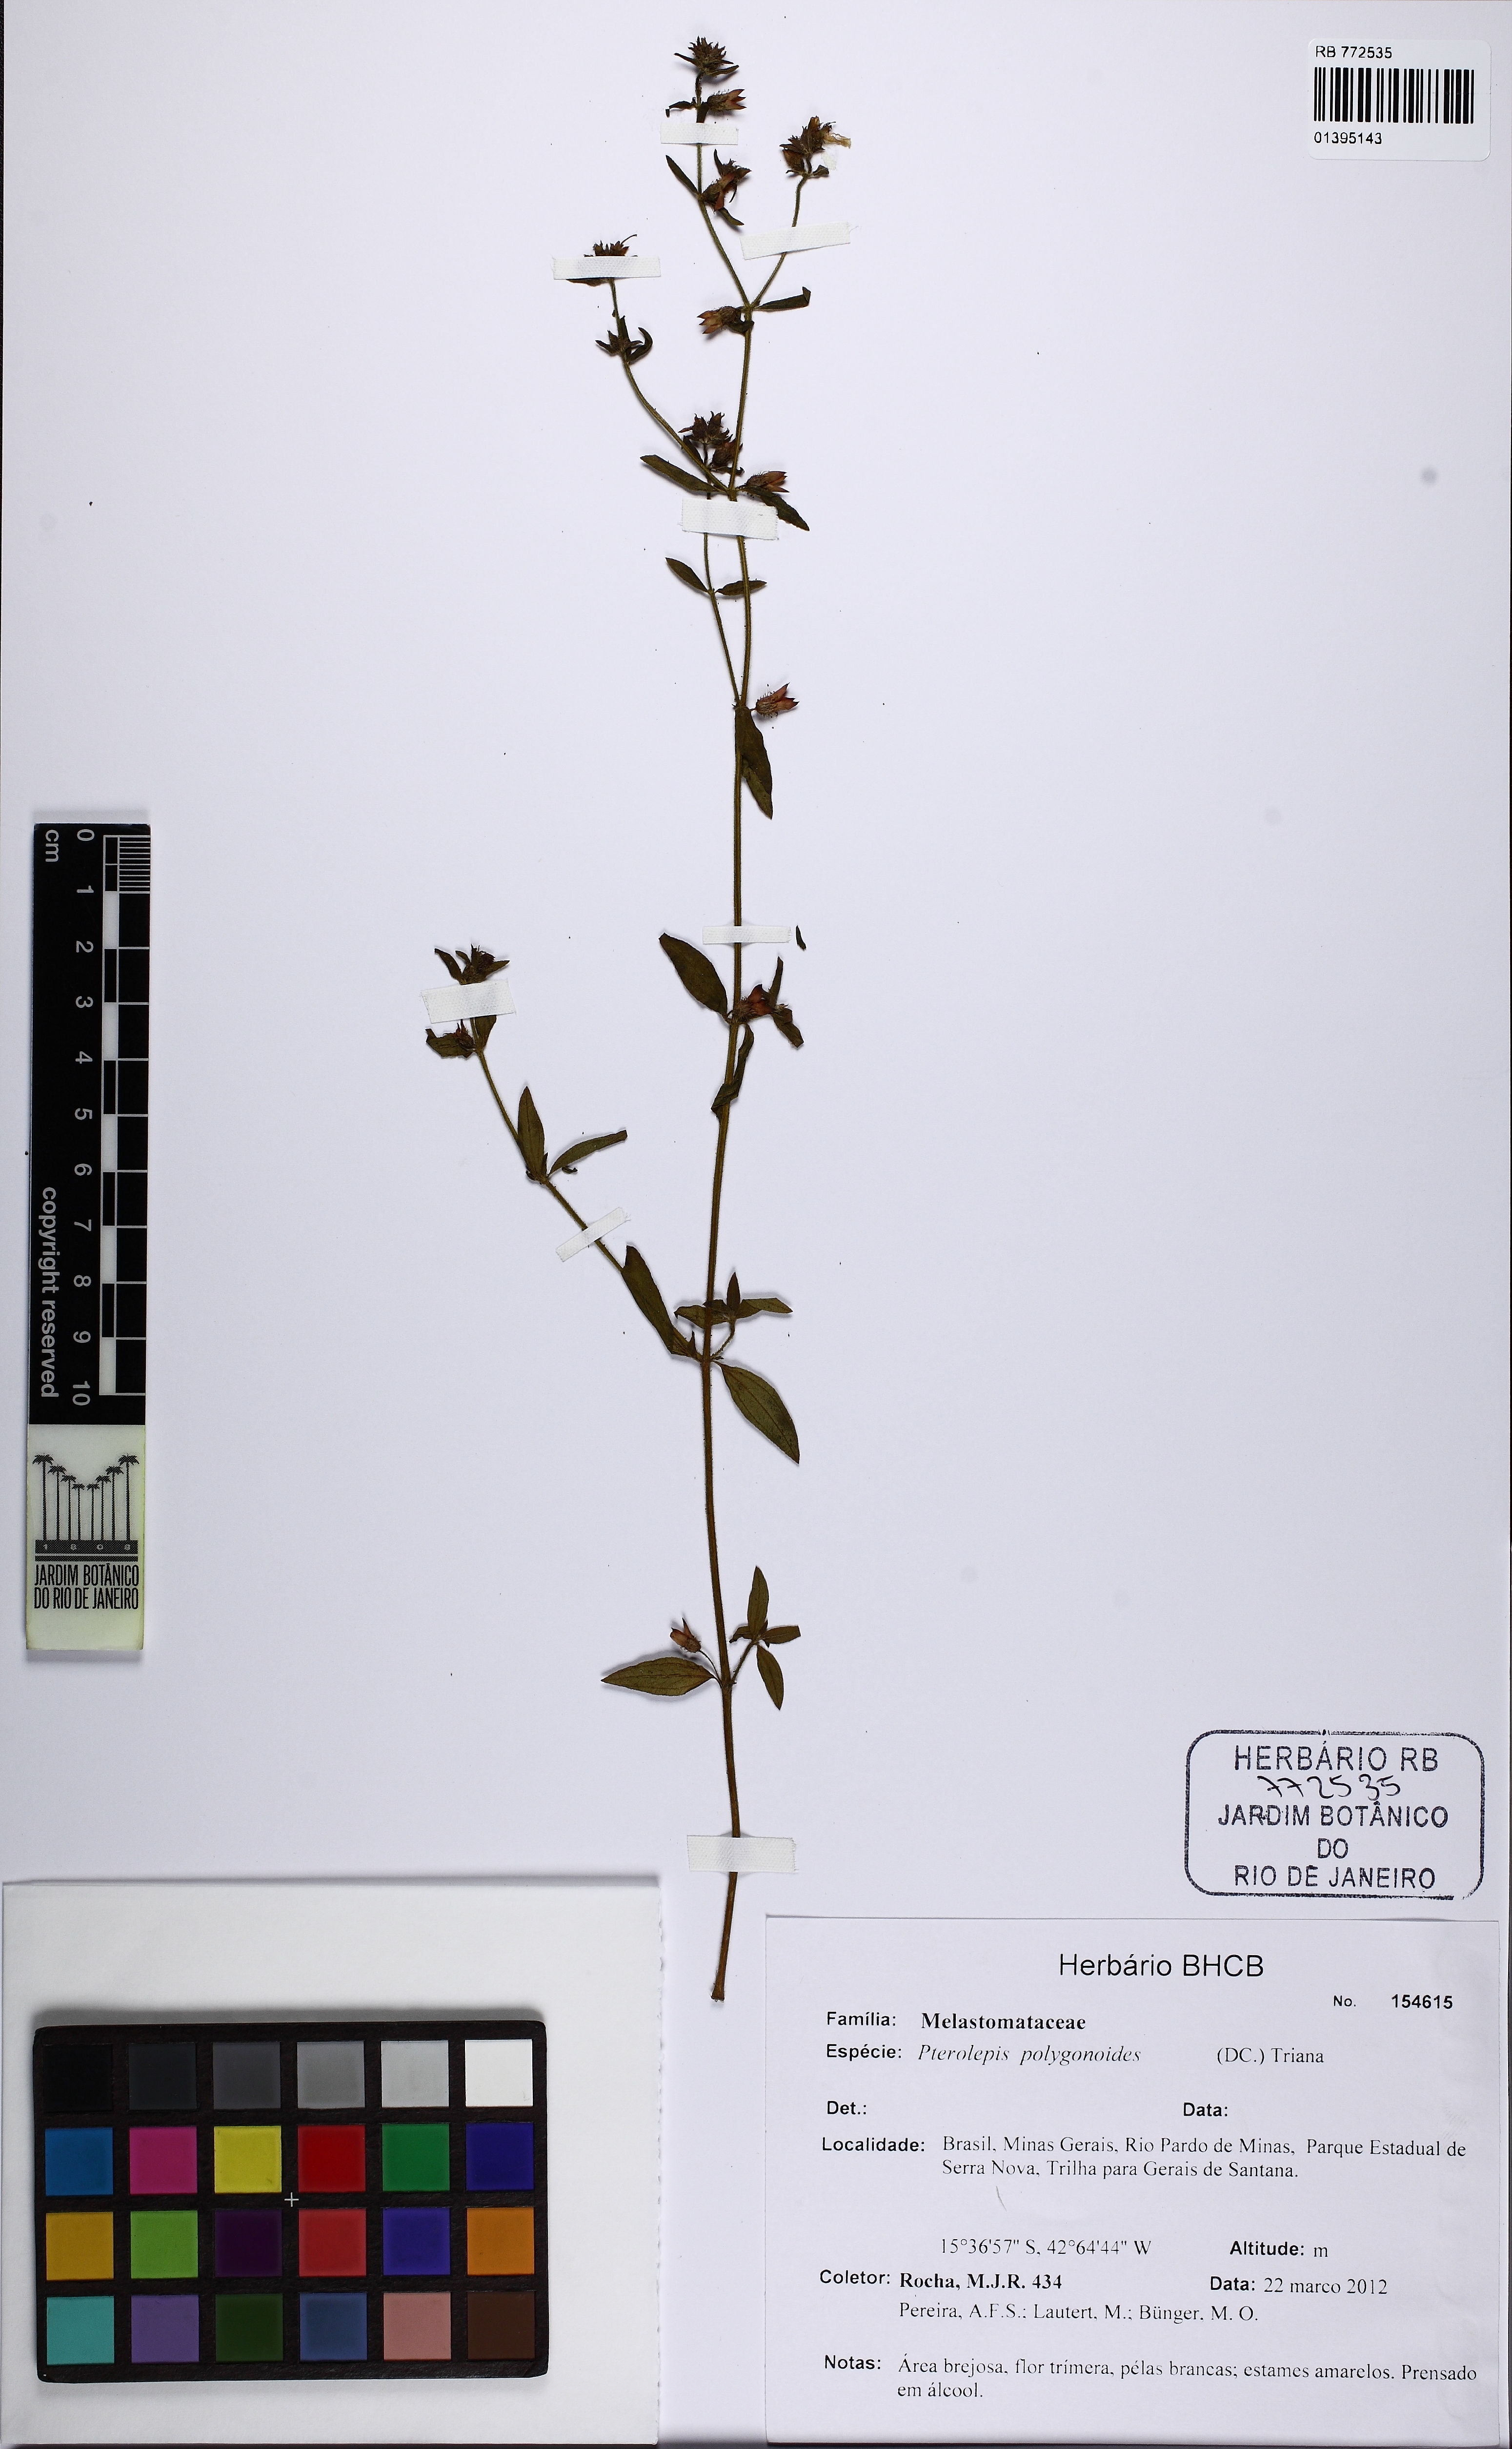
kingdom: Plantae
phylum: Tracheophyta
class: Magnoliopsida
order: Myrtales
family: Melastomataceae
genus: Pterolepis
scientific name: Pterolepis polygonoides
